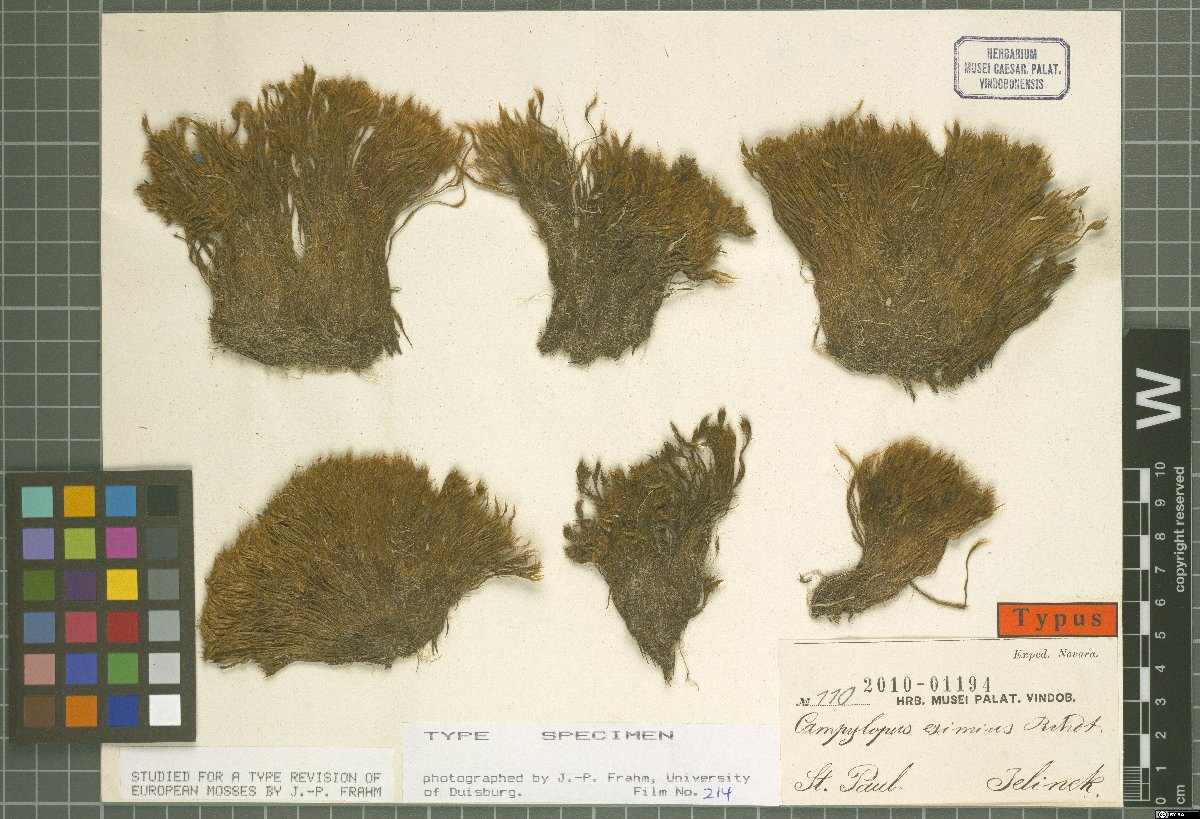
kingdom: Plantae
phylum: Bryophyta
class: Bryopsida
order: Dicranales
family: Leucobryaceae
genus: Campylopus
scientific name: Campylopus incrassatus
